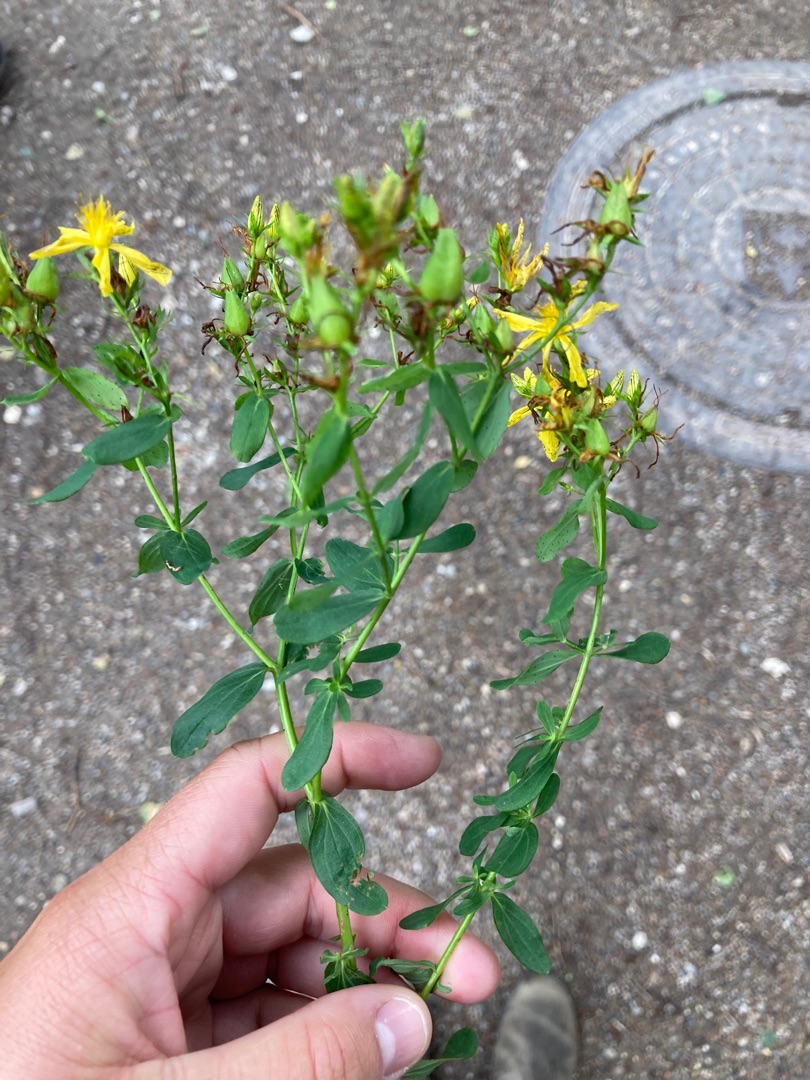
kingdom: Plantae
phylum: Tracheophyta
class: Magnoliopsida
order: Malpighiales
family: Hypericaceae
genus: Hypericum
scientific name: Hypericum perforatum
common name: Prikbladet perikon
